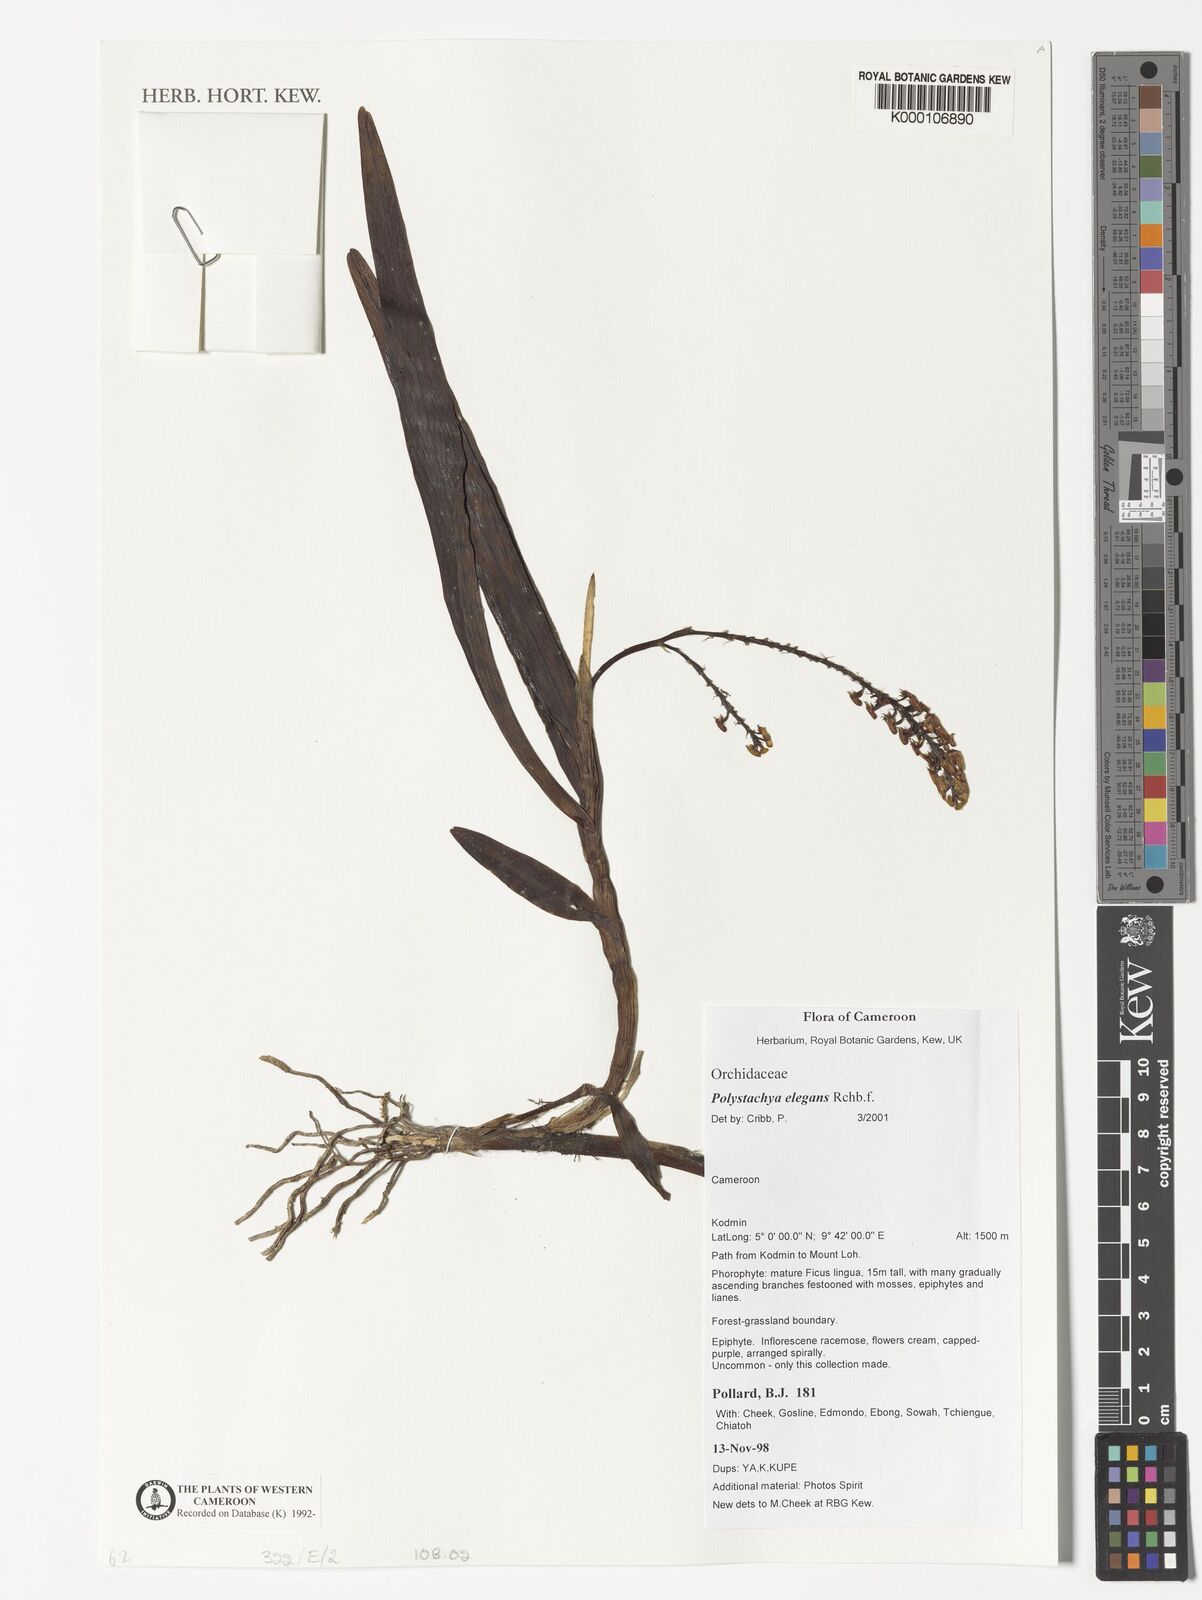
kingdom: Plantae
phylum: Tracheophyta
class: Liliopsida
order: Asparagales
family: Orchidaceae
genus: Polystachya
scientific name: Polystachya elegans
